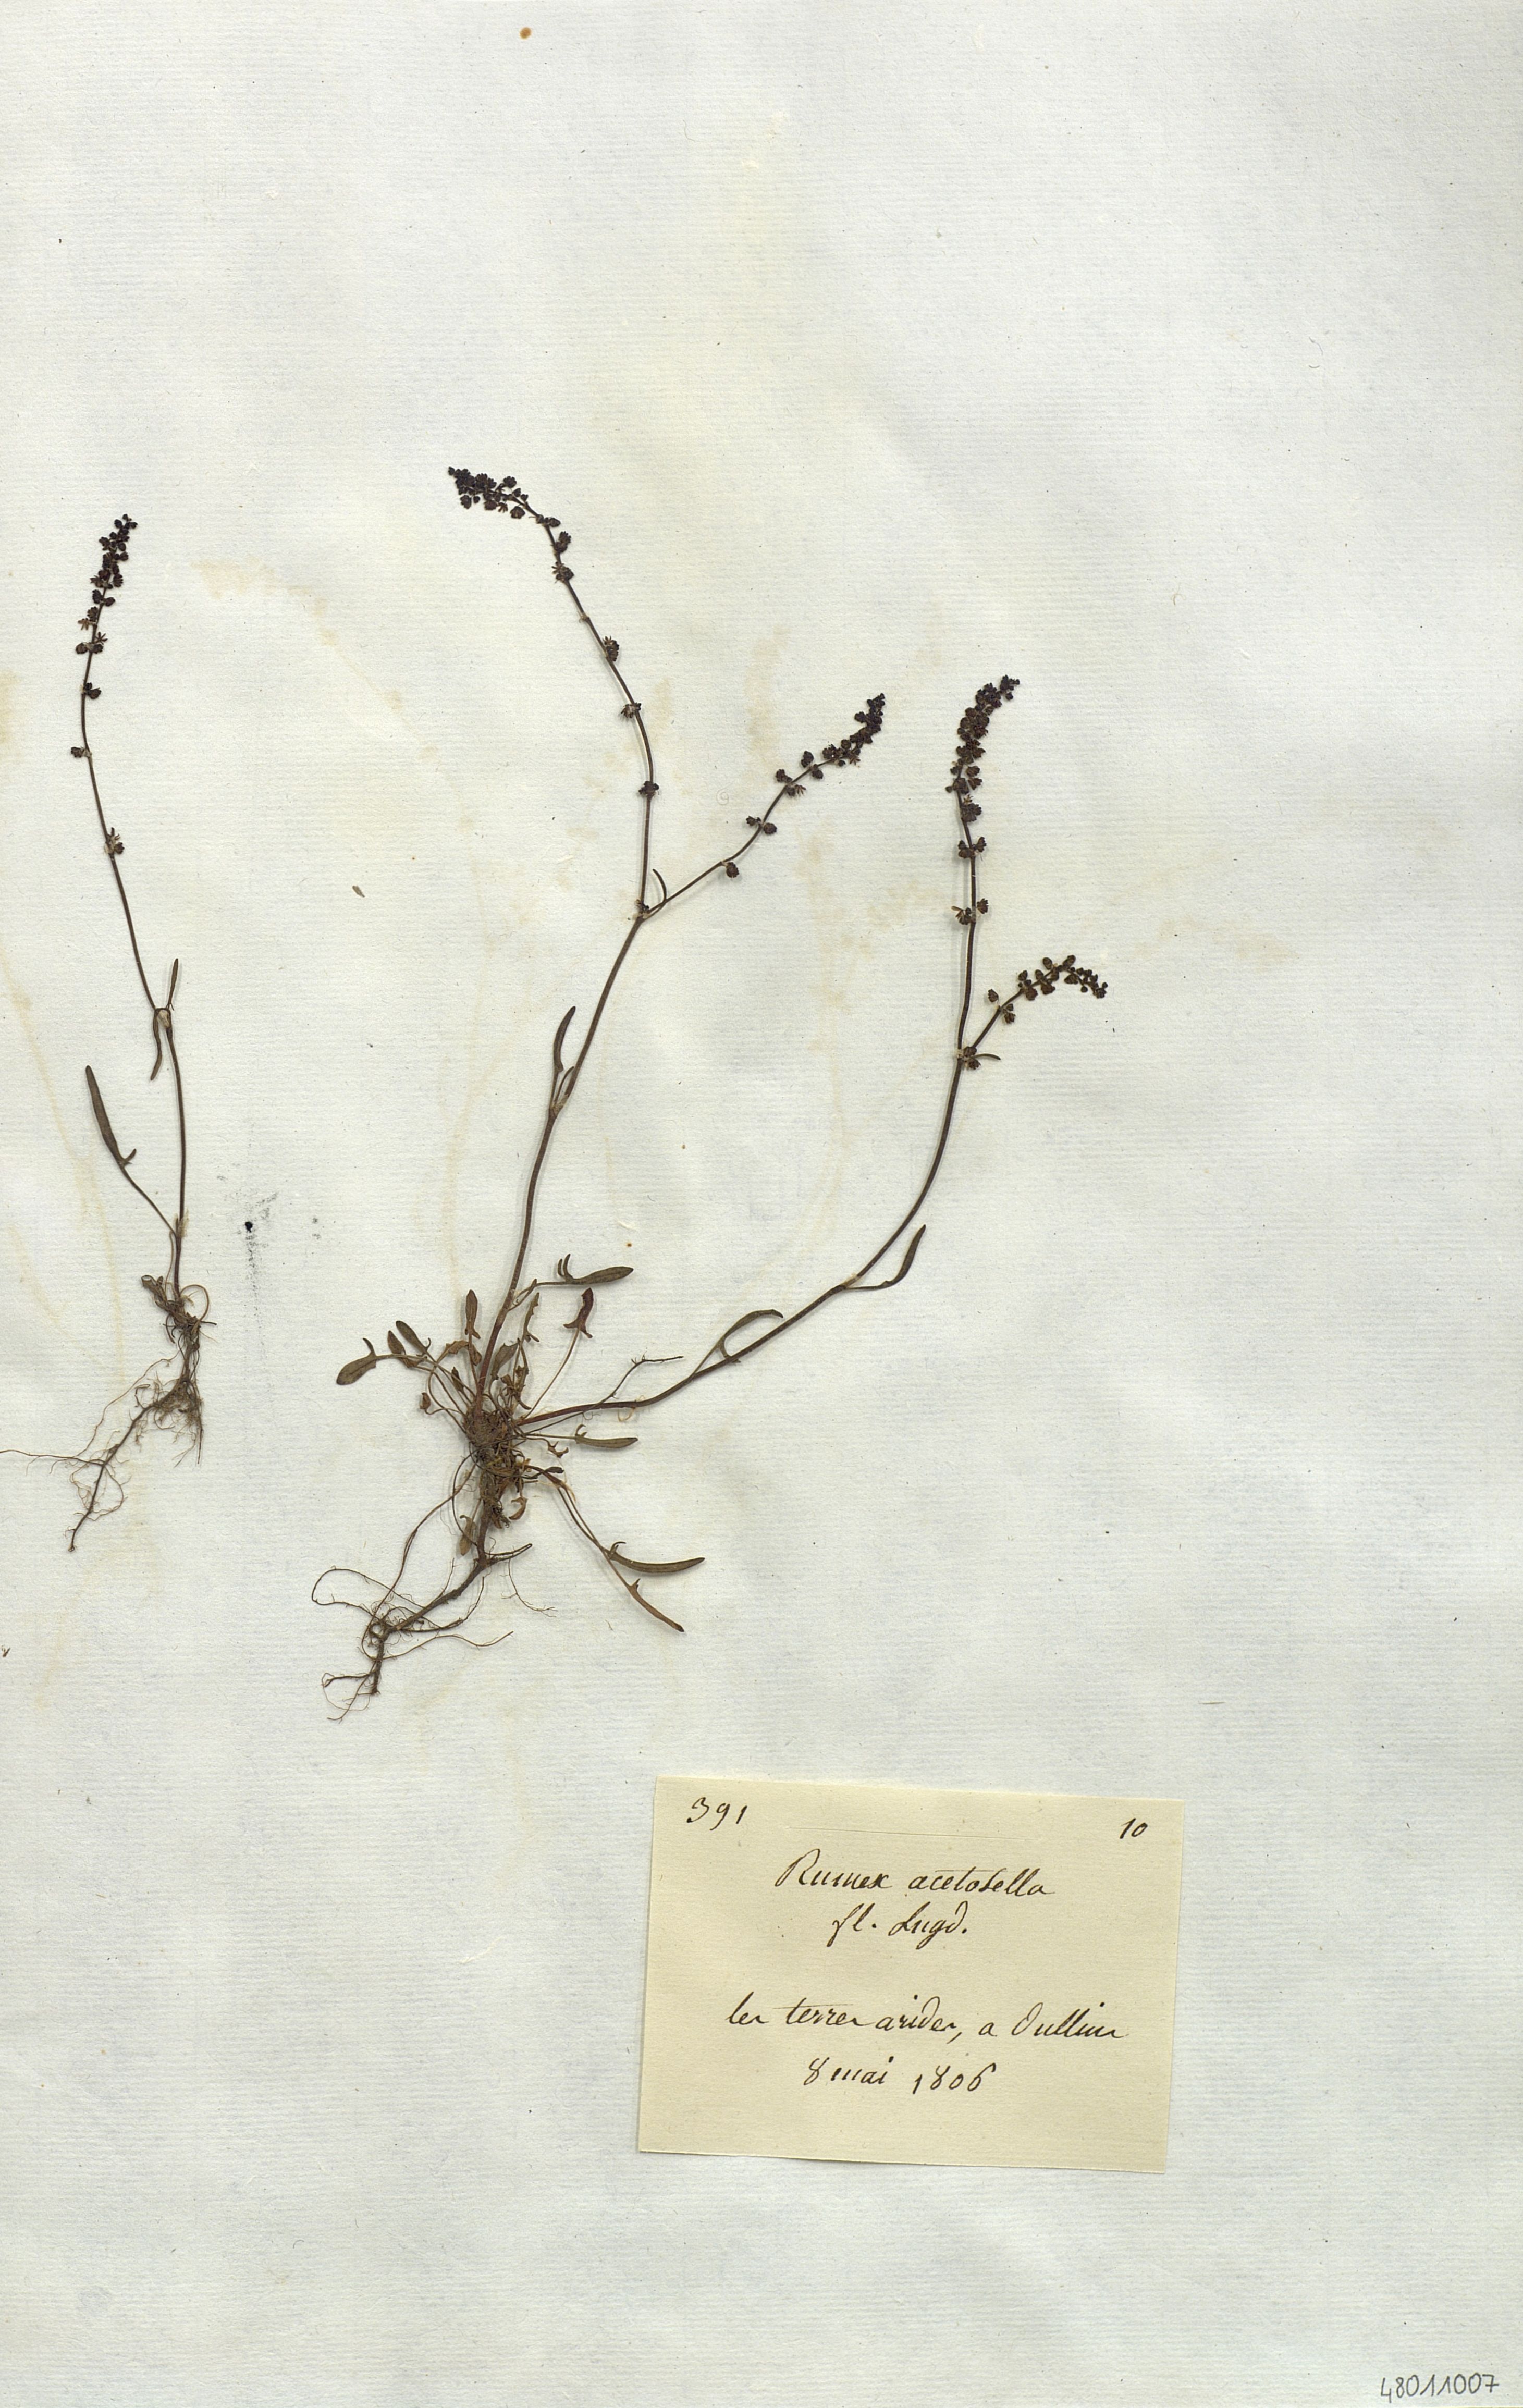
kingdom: Plantae
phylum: Tracheophyta
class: Magnoliopsida
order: Caryophyllales
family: Polygonaceae
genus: Rumex
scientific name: Rumex acetosella
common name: Common sheep sorrel
